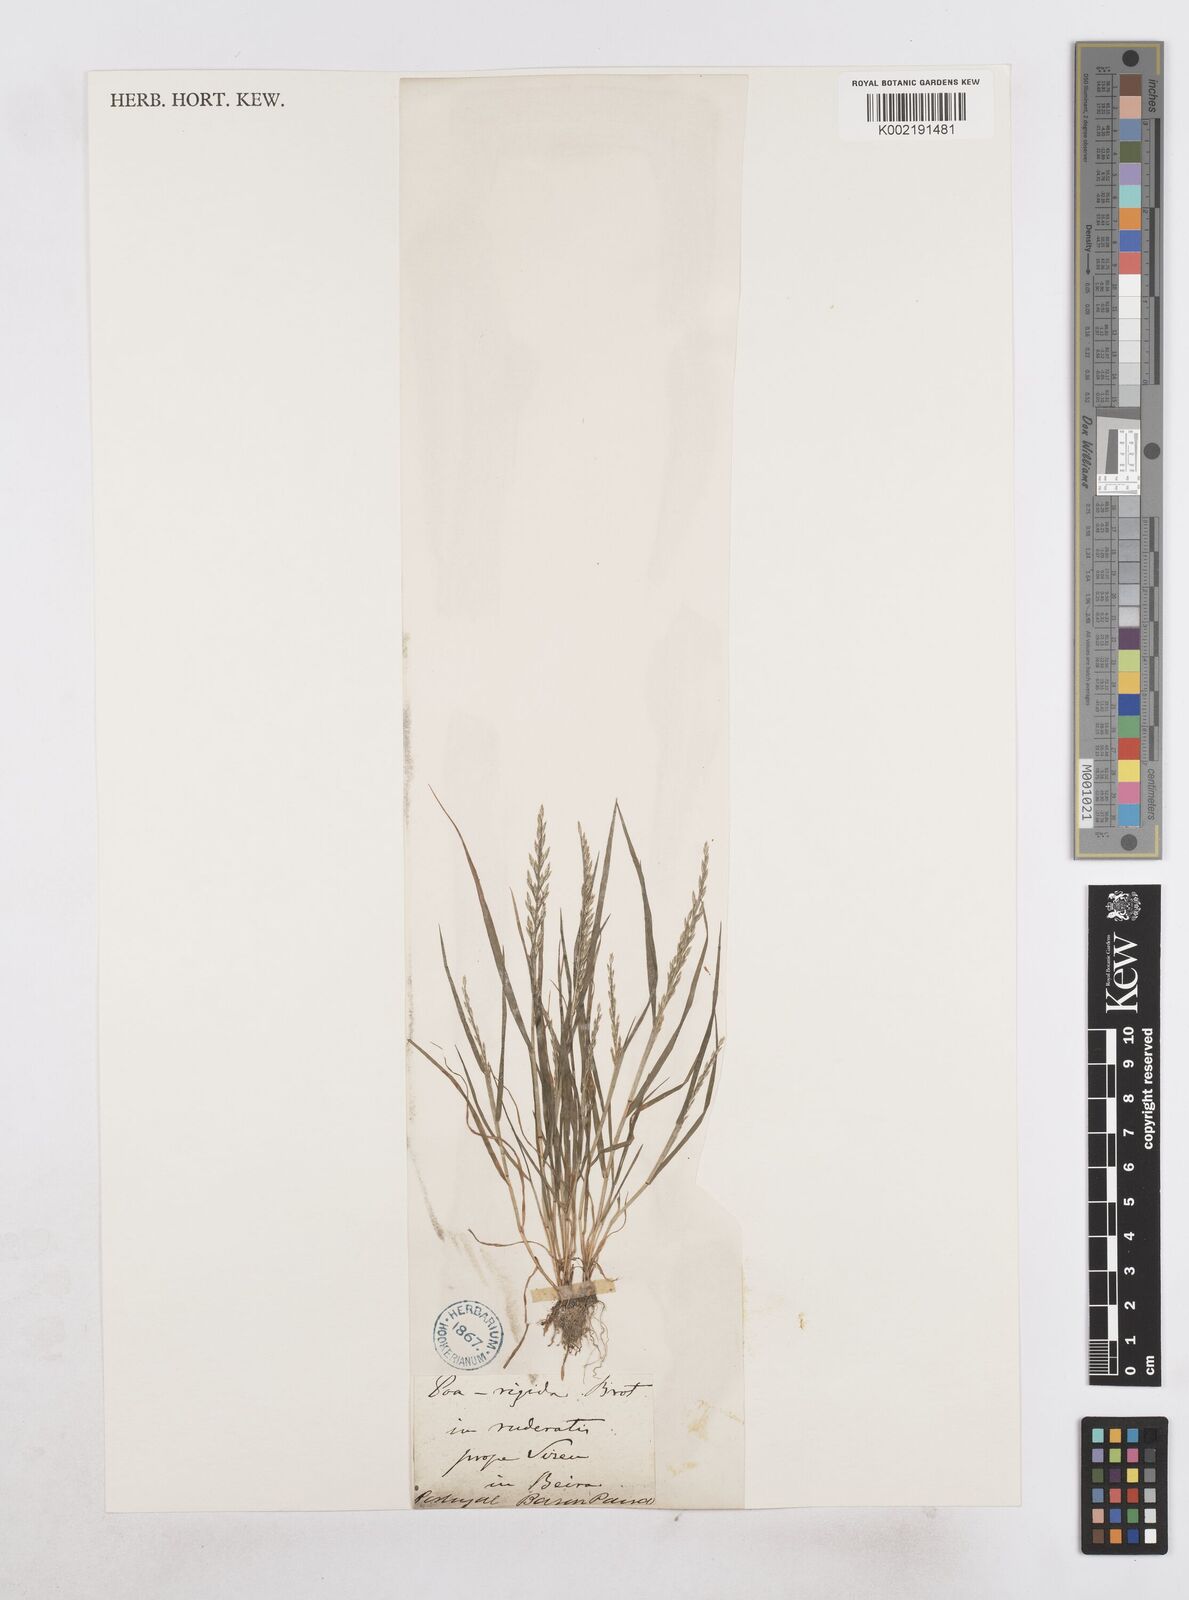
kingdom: Plantae
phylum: Tracheophyta
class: Liliopsida
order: Poales
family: Poaceae
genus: Catapodium
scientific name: Catapodium rigidum
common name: Fern-grass
